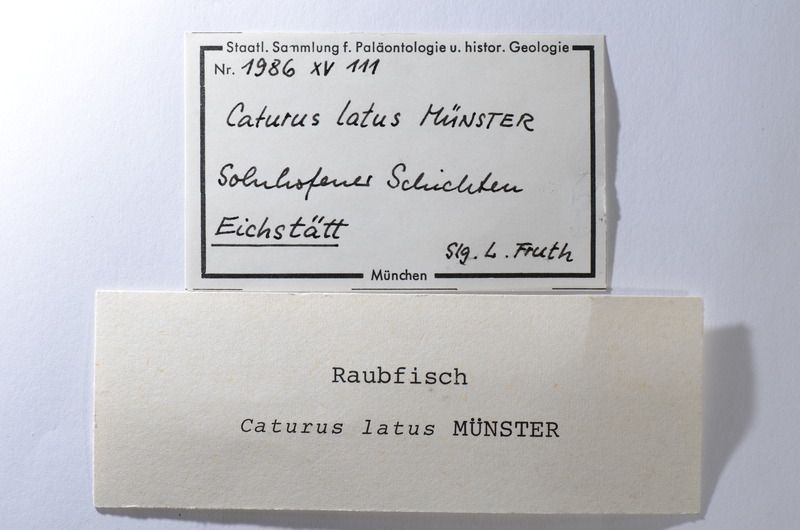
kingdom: Animalia
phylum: Chordata
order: Amiiformes
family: Caturidae
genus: Caturus
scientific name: Caturus furcatus
